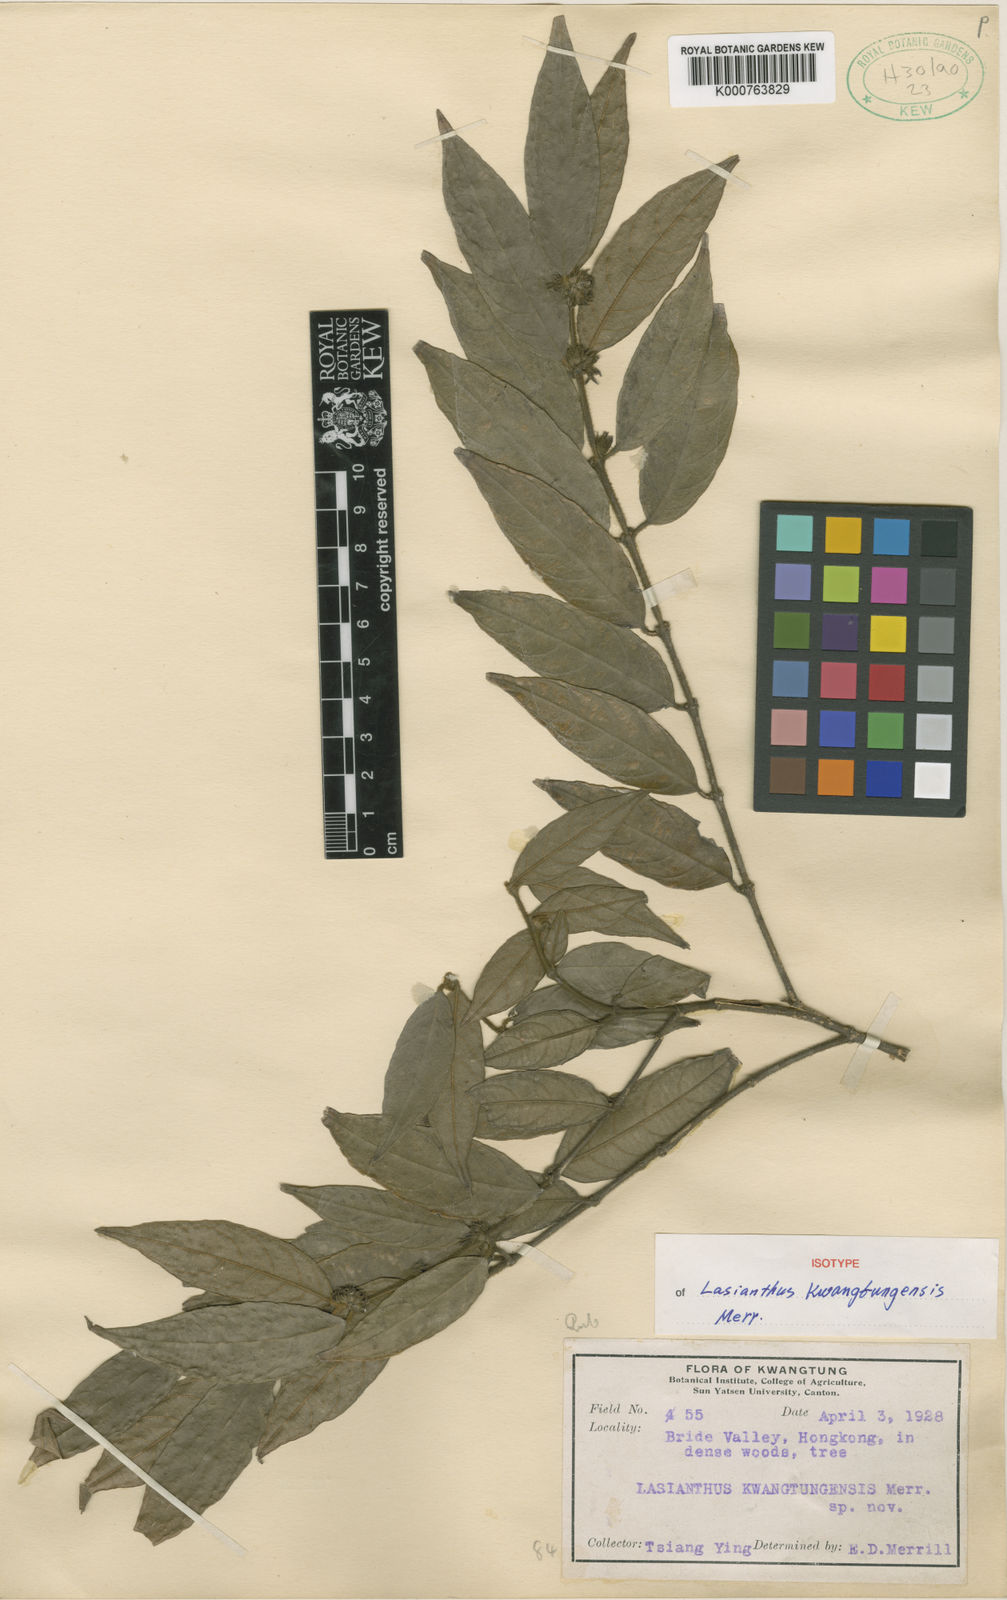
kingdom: Plantae
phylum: Tracheophyta
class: Magnoliopsida
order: Gentianales
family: Rubiaceae
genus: Lasianthus
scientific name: Lasianthus curtisii
